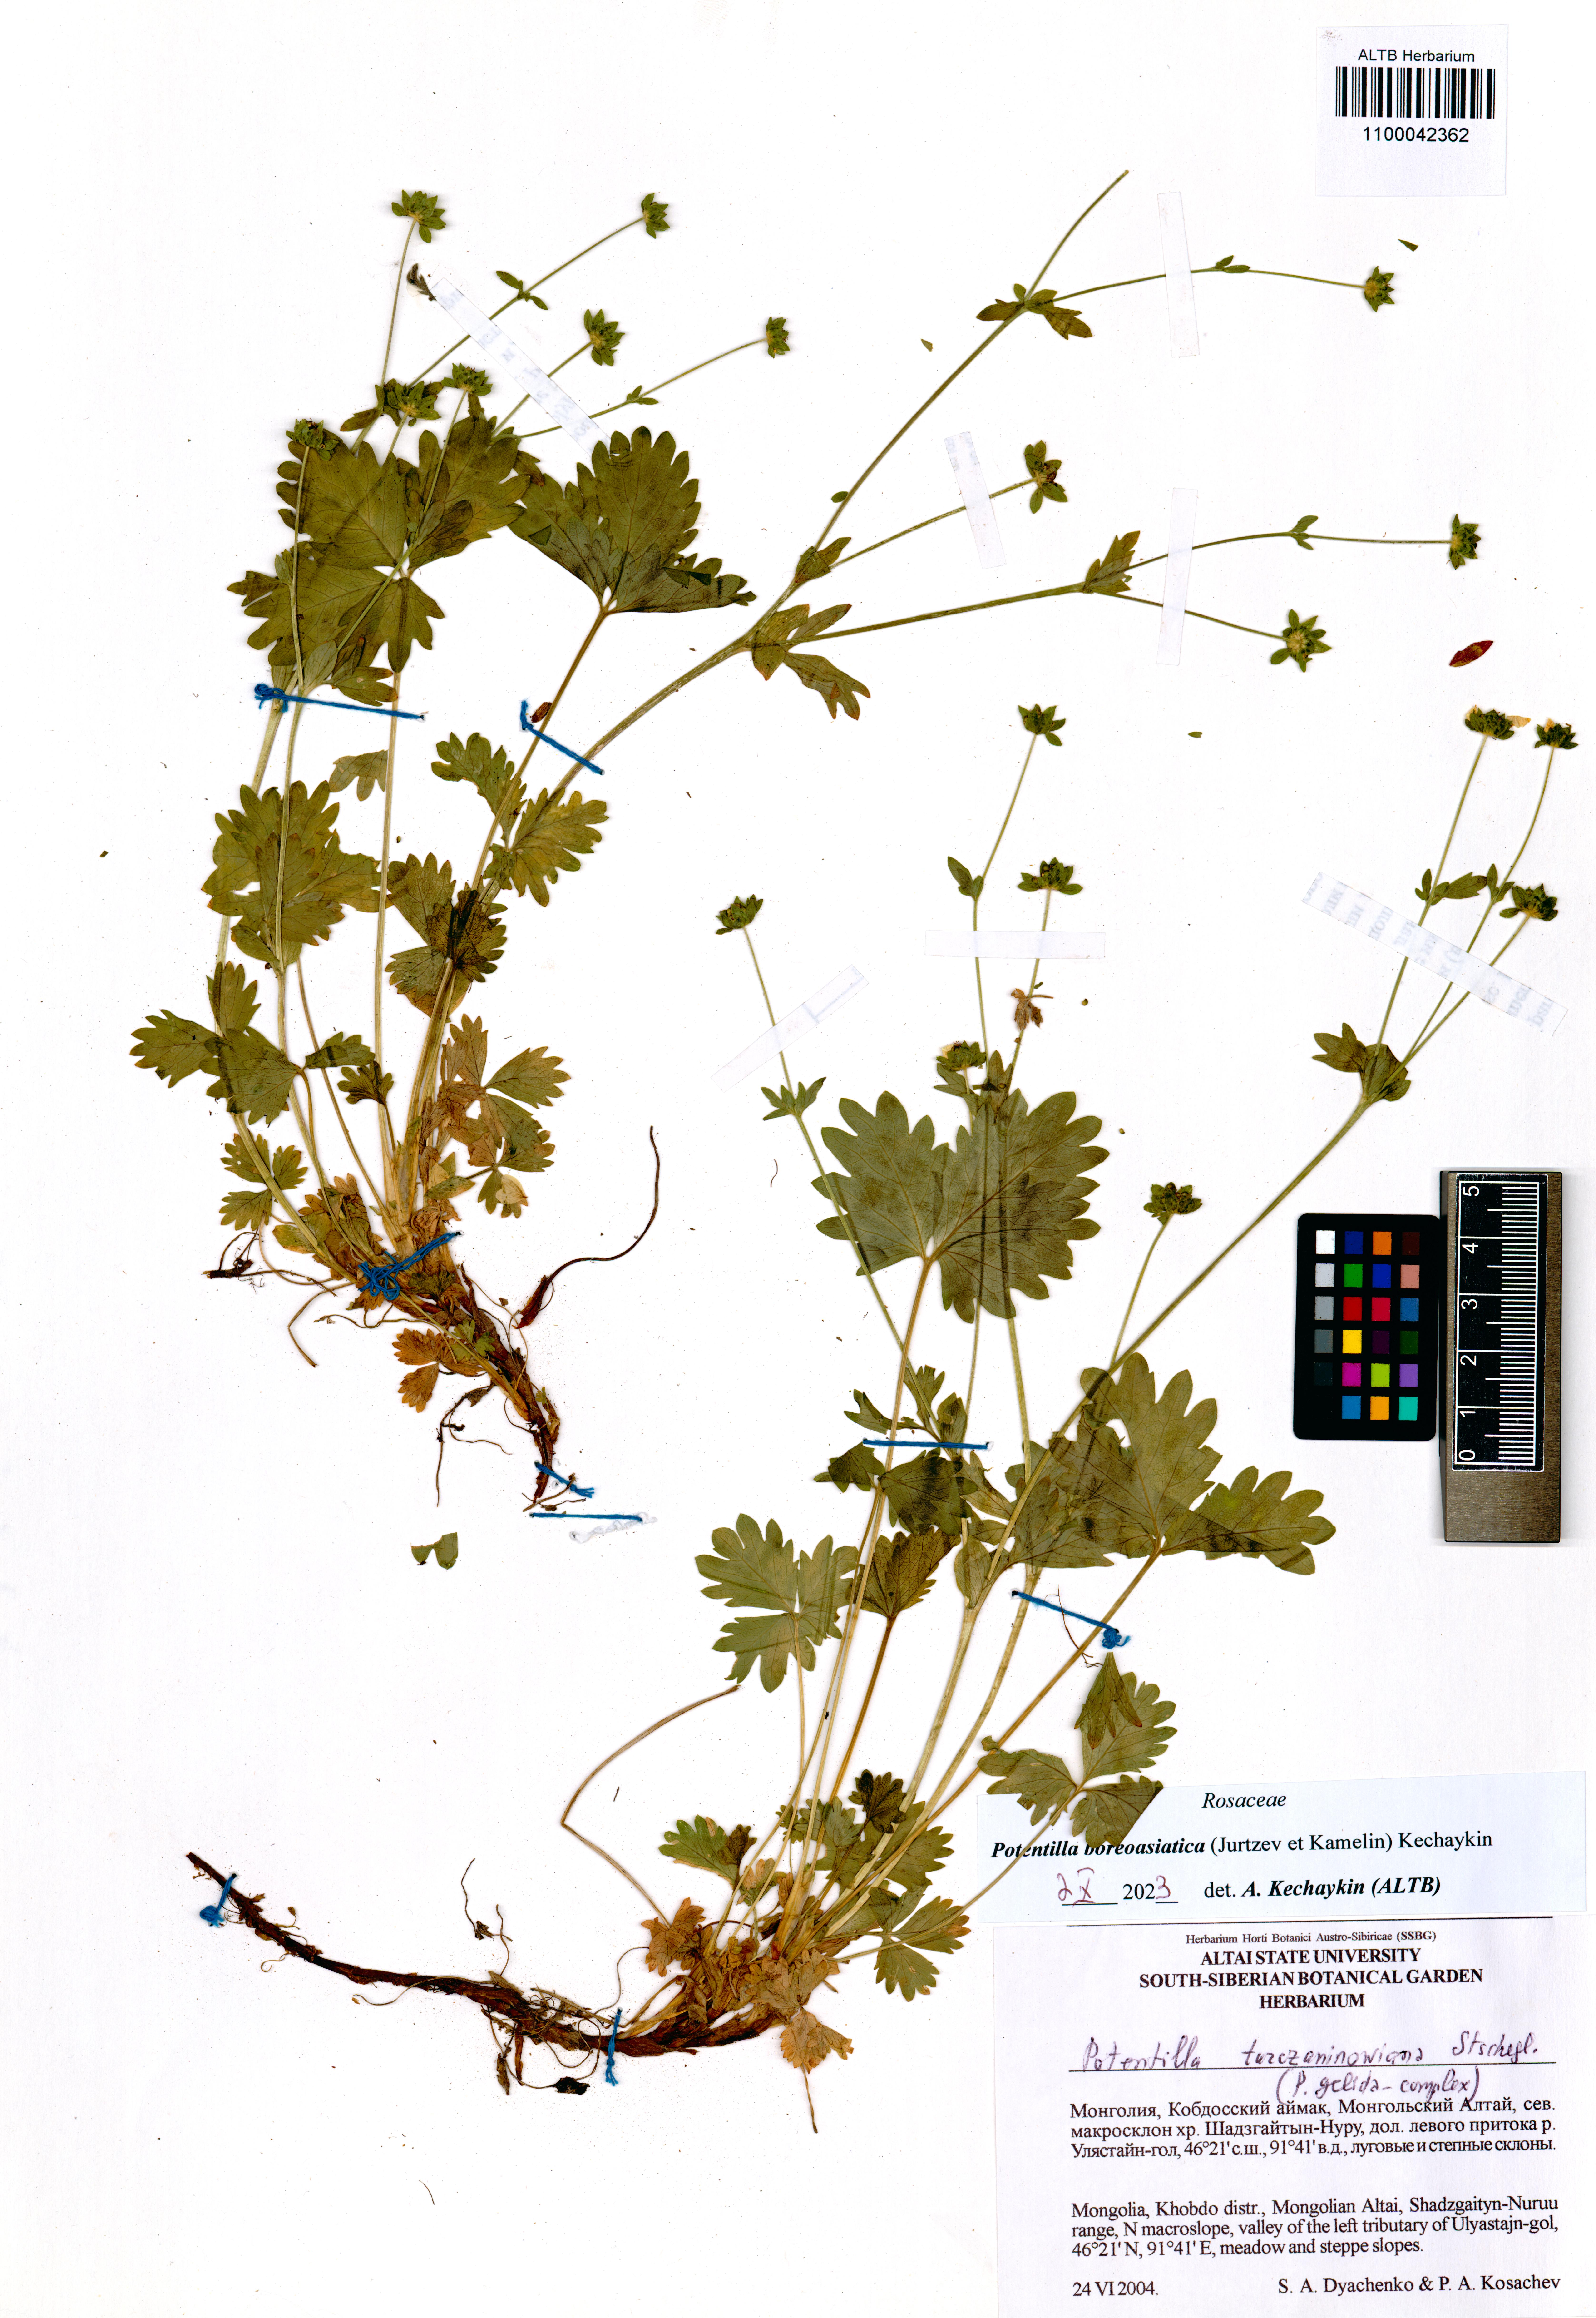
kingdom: Plantae
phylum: Tracheophyta
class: Magnoliopsida
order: Rosales
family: Rosaceae
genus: Potentilla
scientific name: Potentilla
